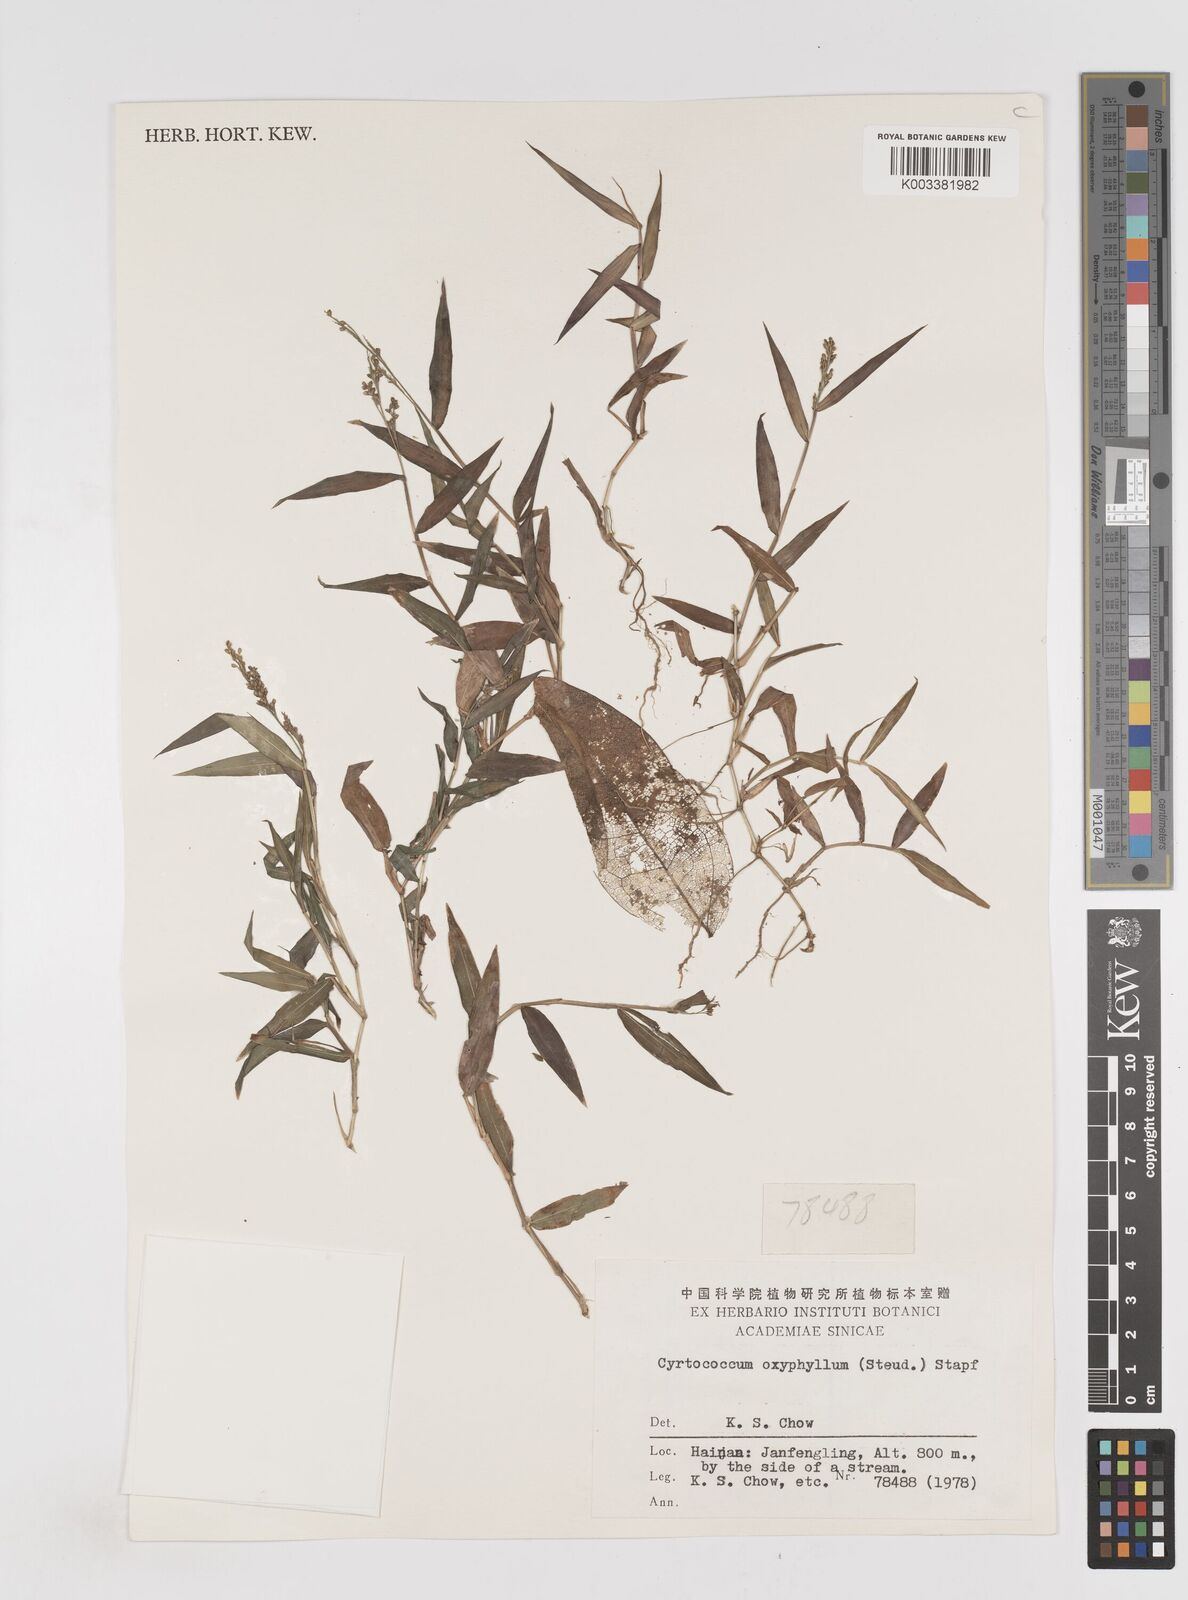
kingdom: Plantae
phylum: Tracheophyta
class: Liliopsida
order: Poales
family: Poaceae
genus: Cyrtococcum
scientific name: Cyrtococcum oxyphyllum
